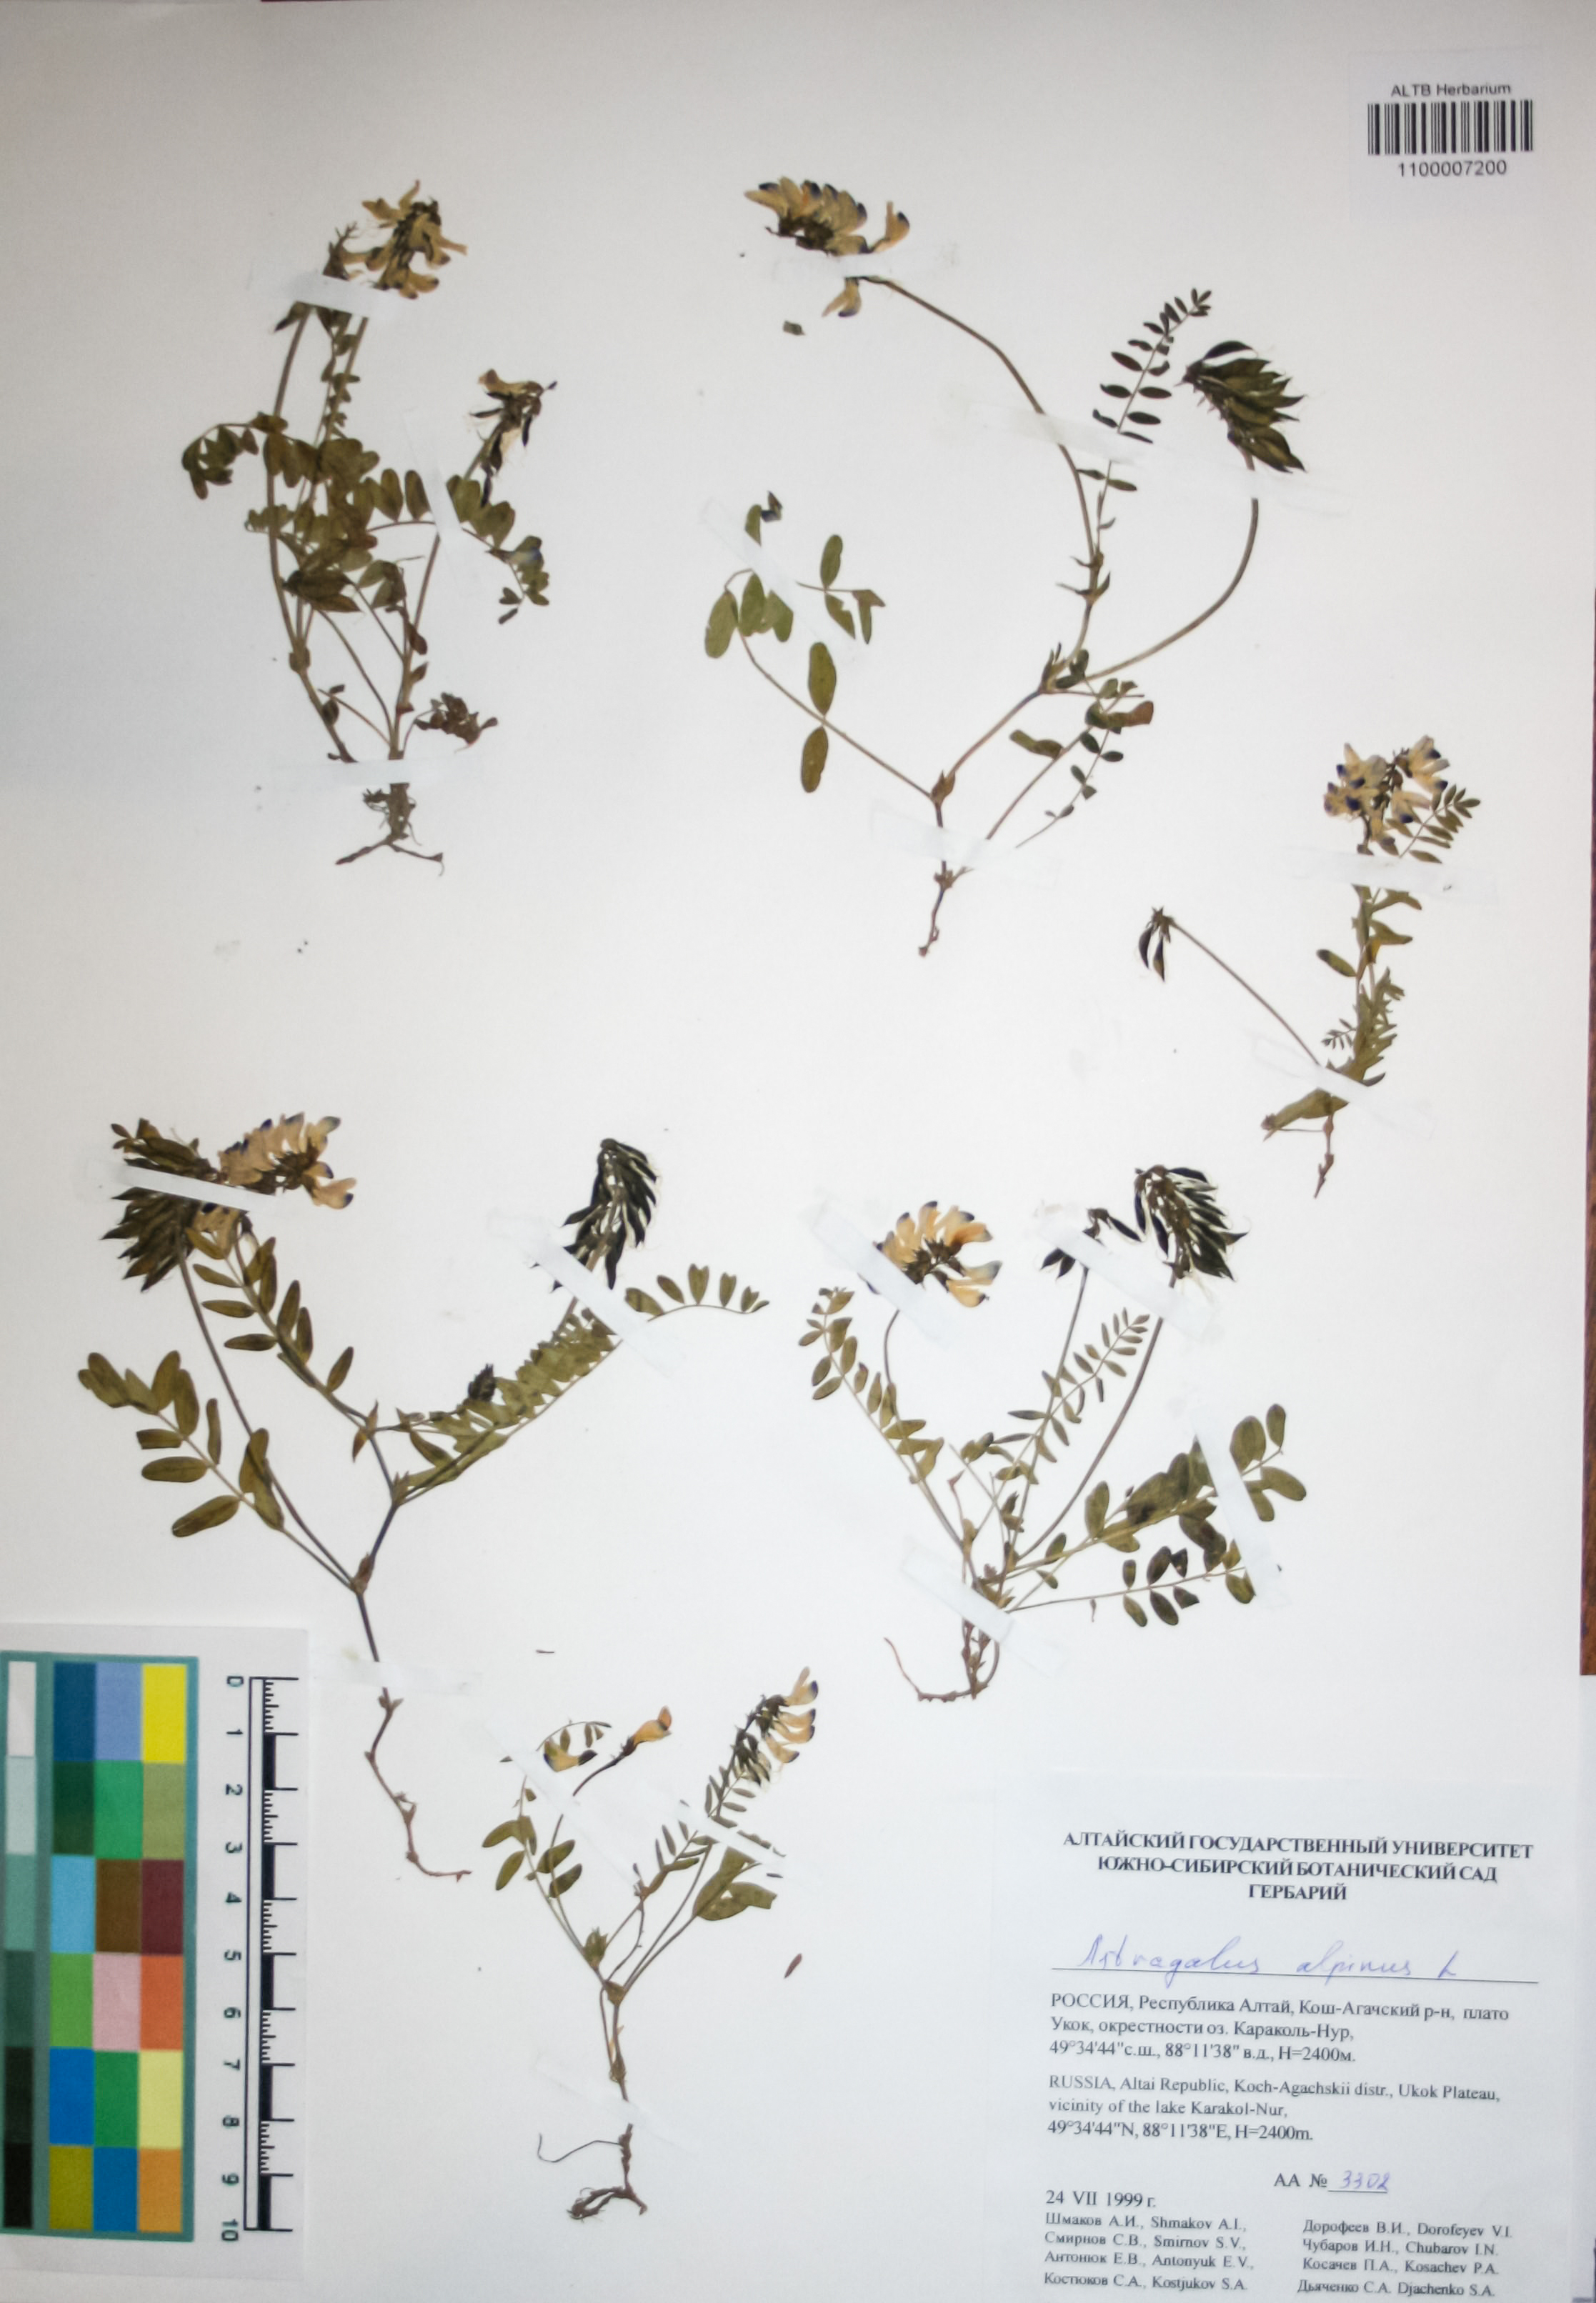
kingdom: Plantae
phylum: Tracheophyta
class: Magnoliopsida
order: Fabales
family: Fabaceae
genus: Astragalus
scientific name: Astragalus alpinus
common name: Alpine milk-vetch
